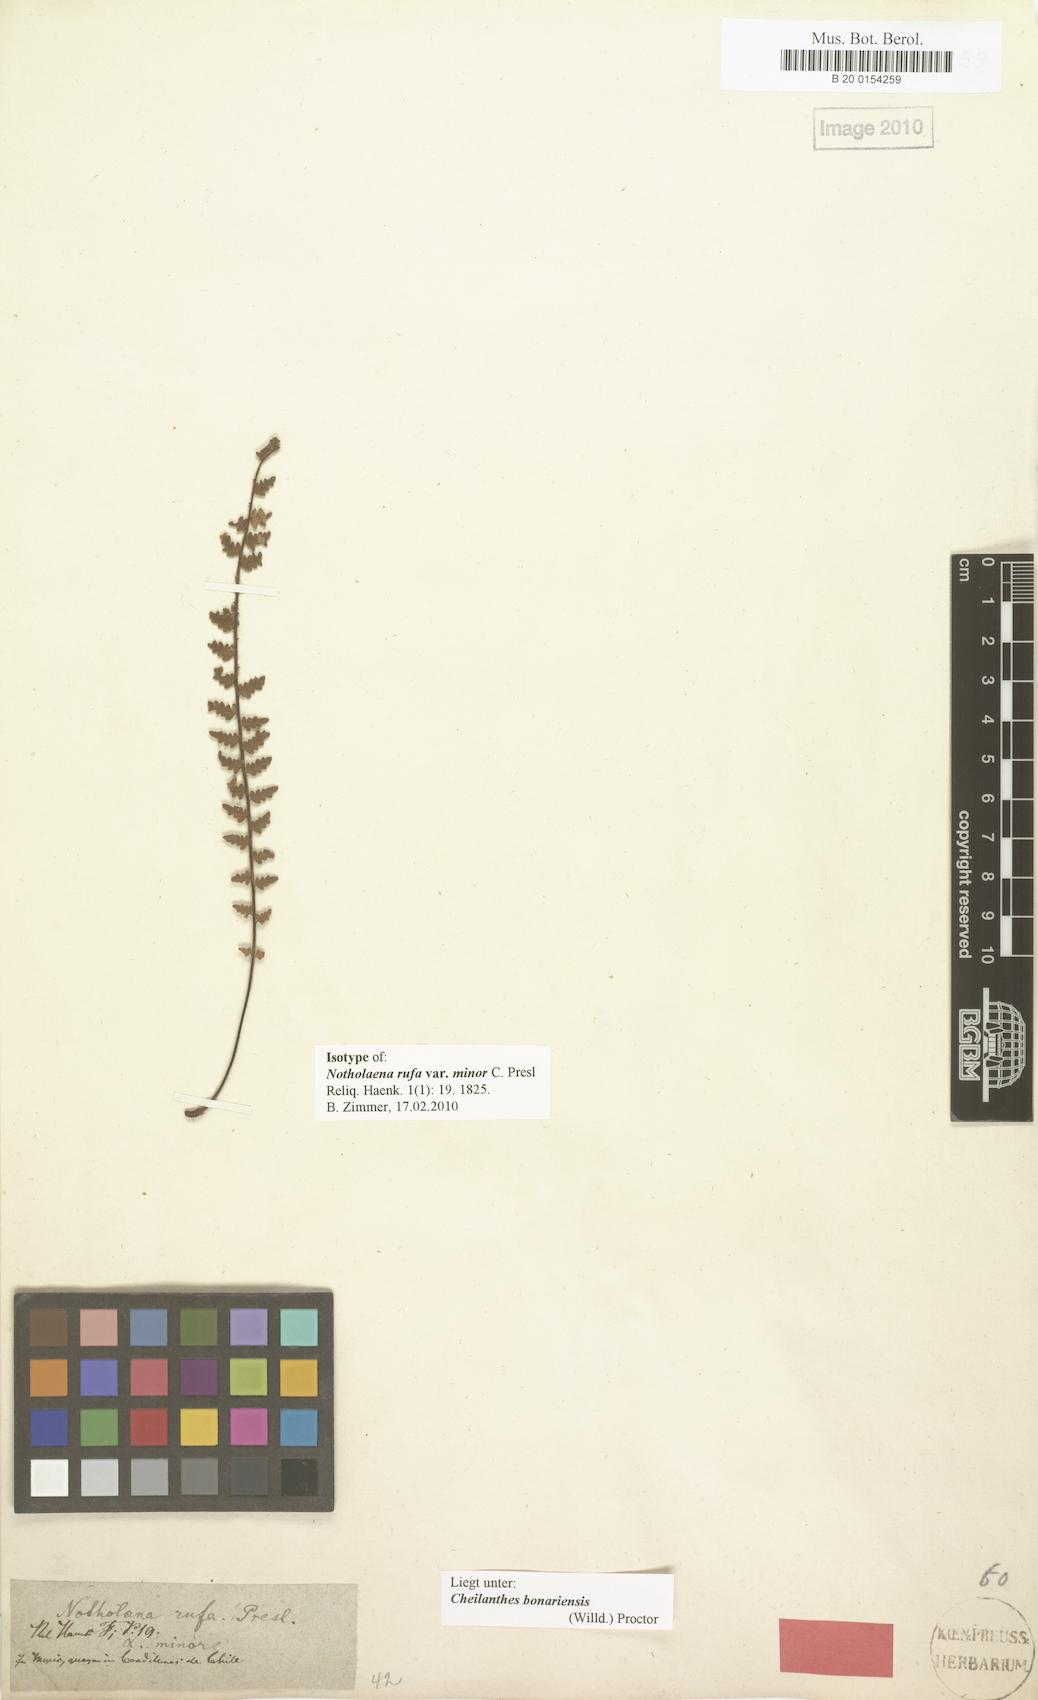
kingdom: Plantae
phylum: Tracheophyta
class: Polypodiopsida
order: Polypodiales
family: Pteridaceae
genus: Myriopteris
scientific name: Myriopteris aurea
